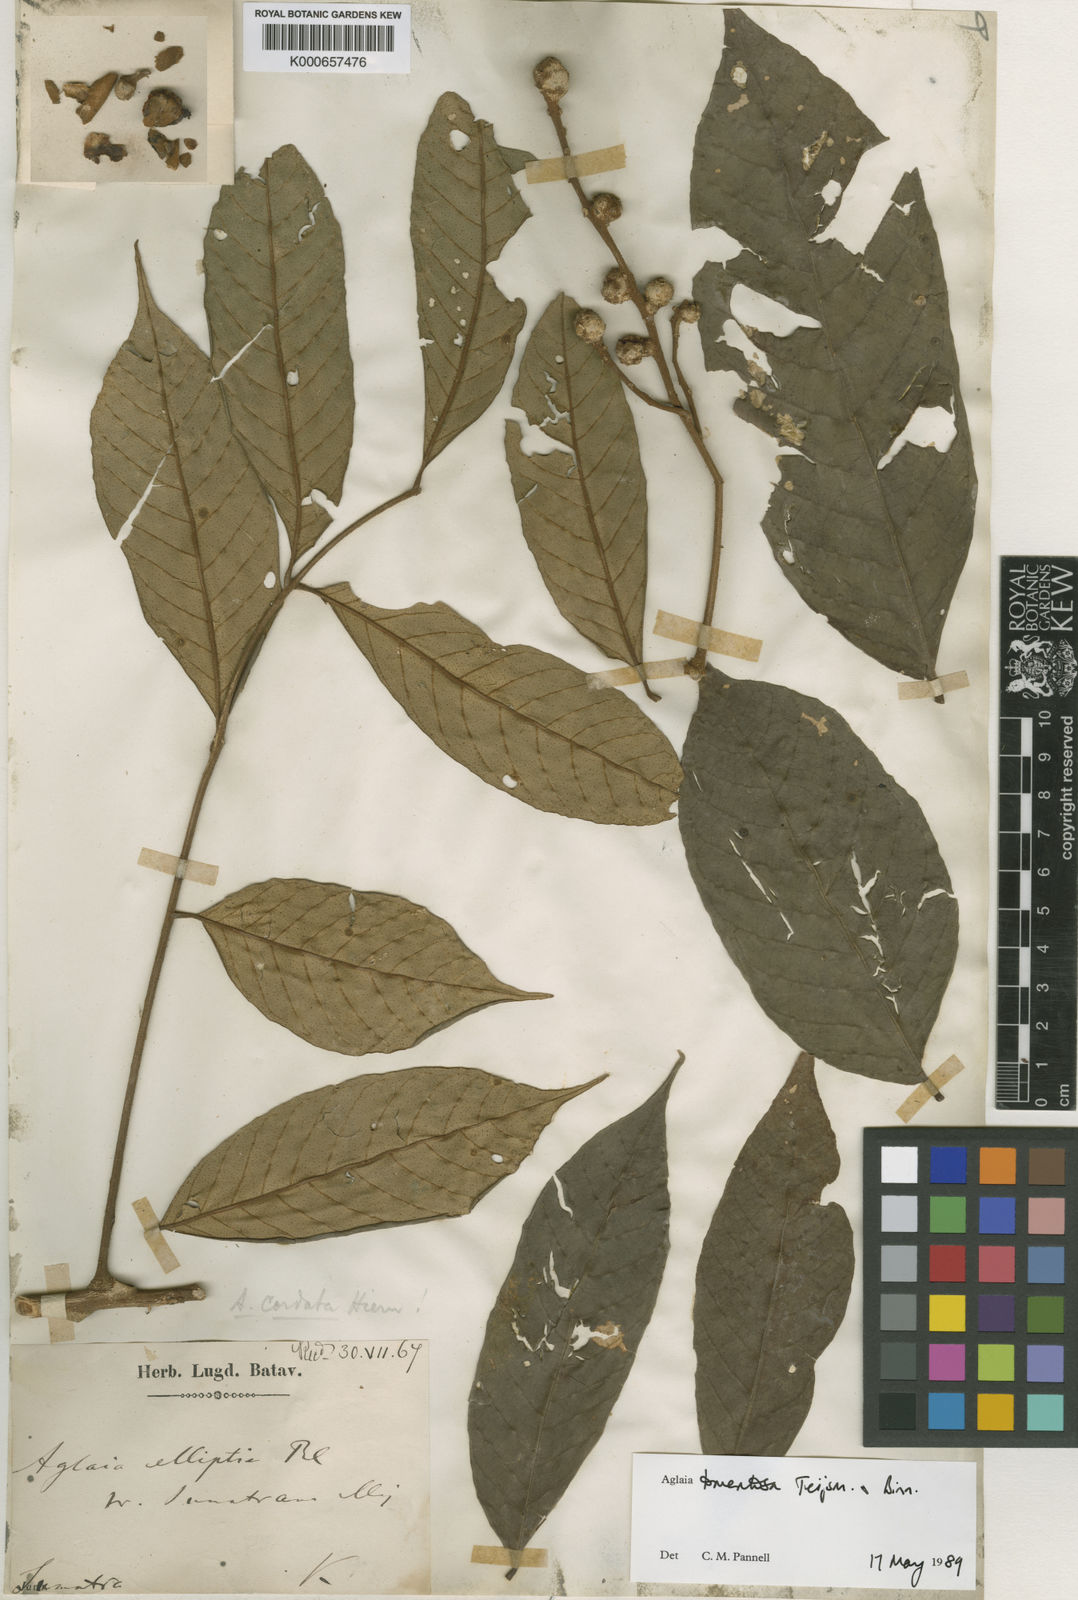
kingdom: Plantae
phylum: Tracheophyta
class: Magnoliopsida
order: Sapindales
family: Meliaceae
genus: Aglaia
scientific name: Aglaia tomentosa
